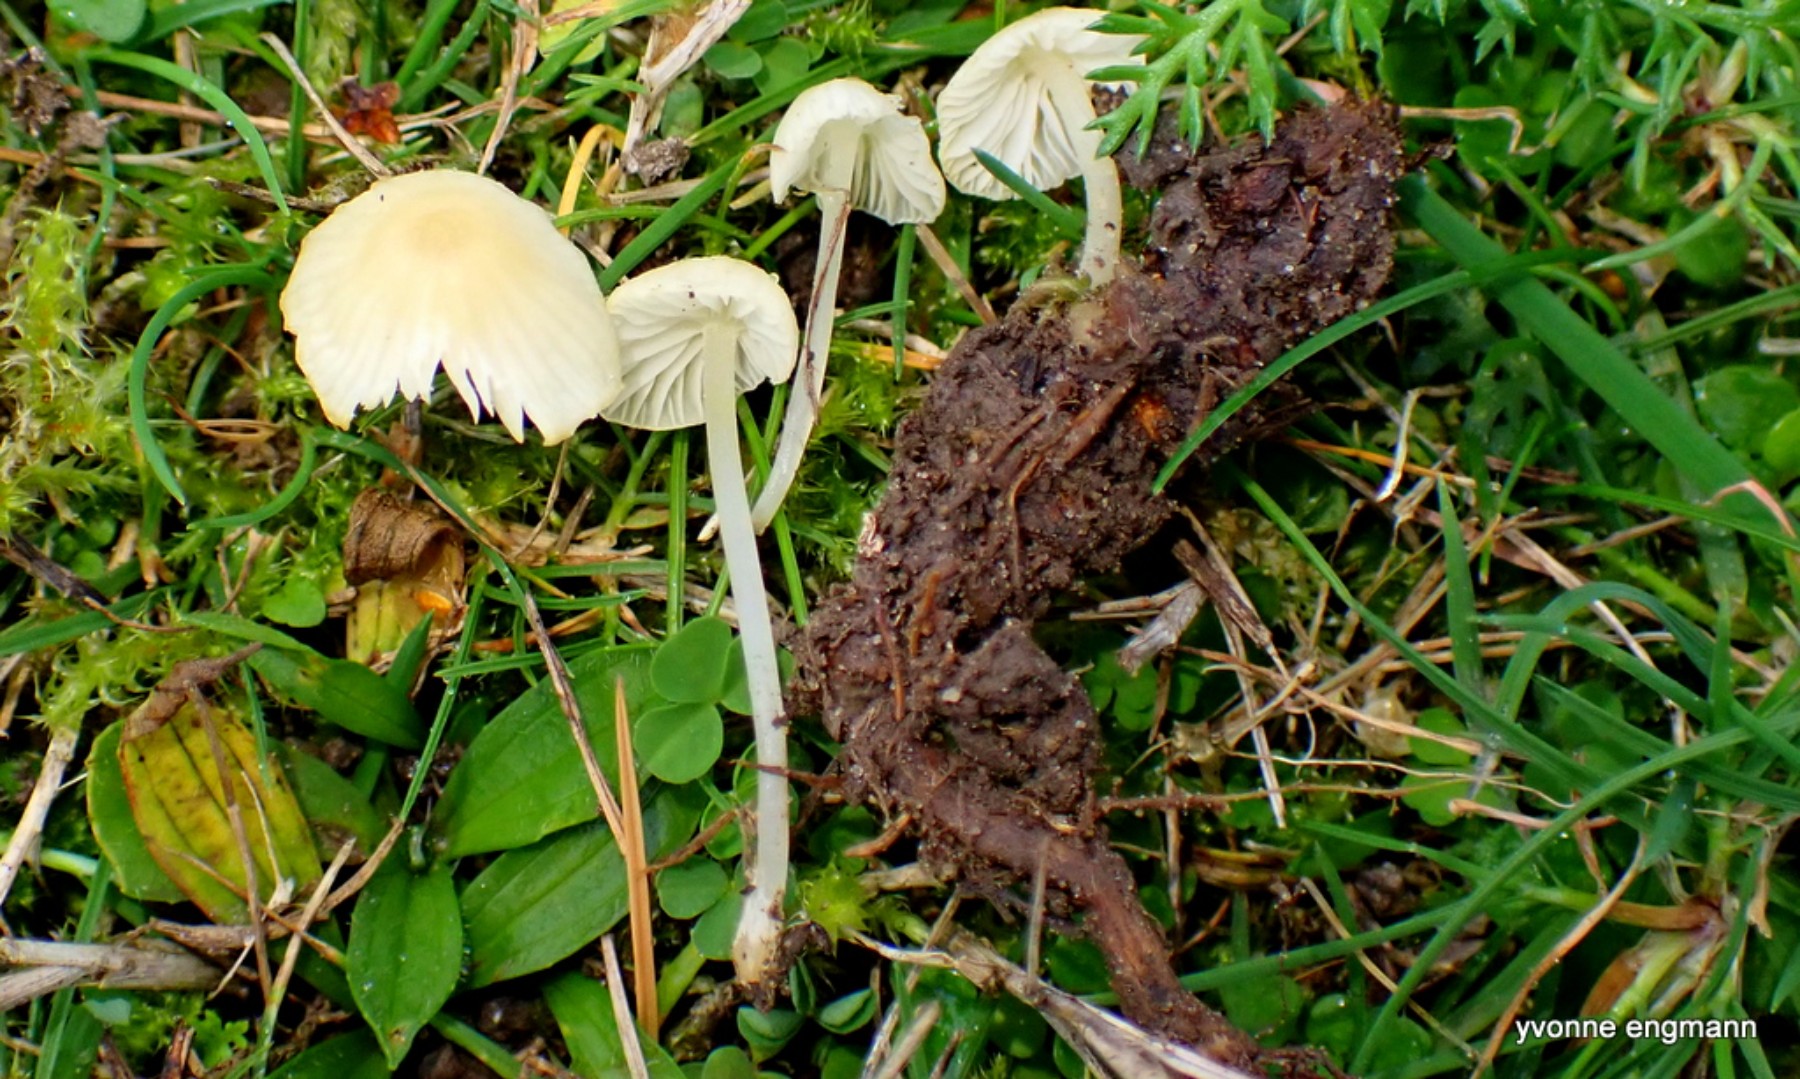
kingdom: Fungi
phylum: Basidiomycota
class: Agaricomycetes
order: Agaricales
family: Mycenaceae
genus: Atheniella
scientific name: Atheniella flavoalba
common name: gulhvid huesvamp
